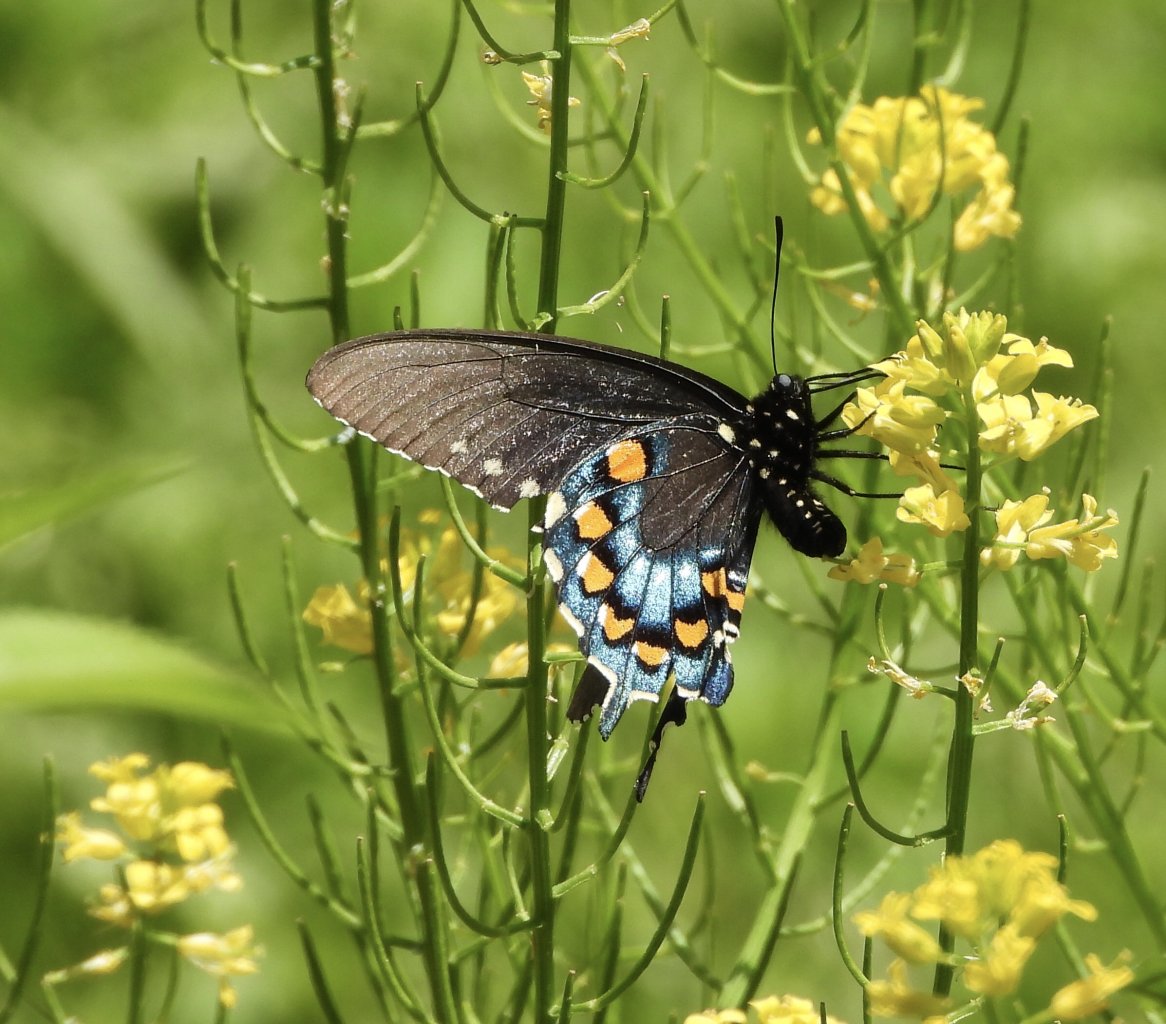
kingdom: Animalia
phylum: Arthropoda
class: Insecta
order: Lepidoptera
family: Papilionidae
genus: Battus
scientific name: Battus philenor
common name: Pipevine Swallowtail
